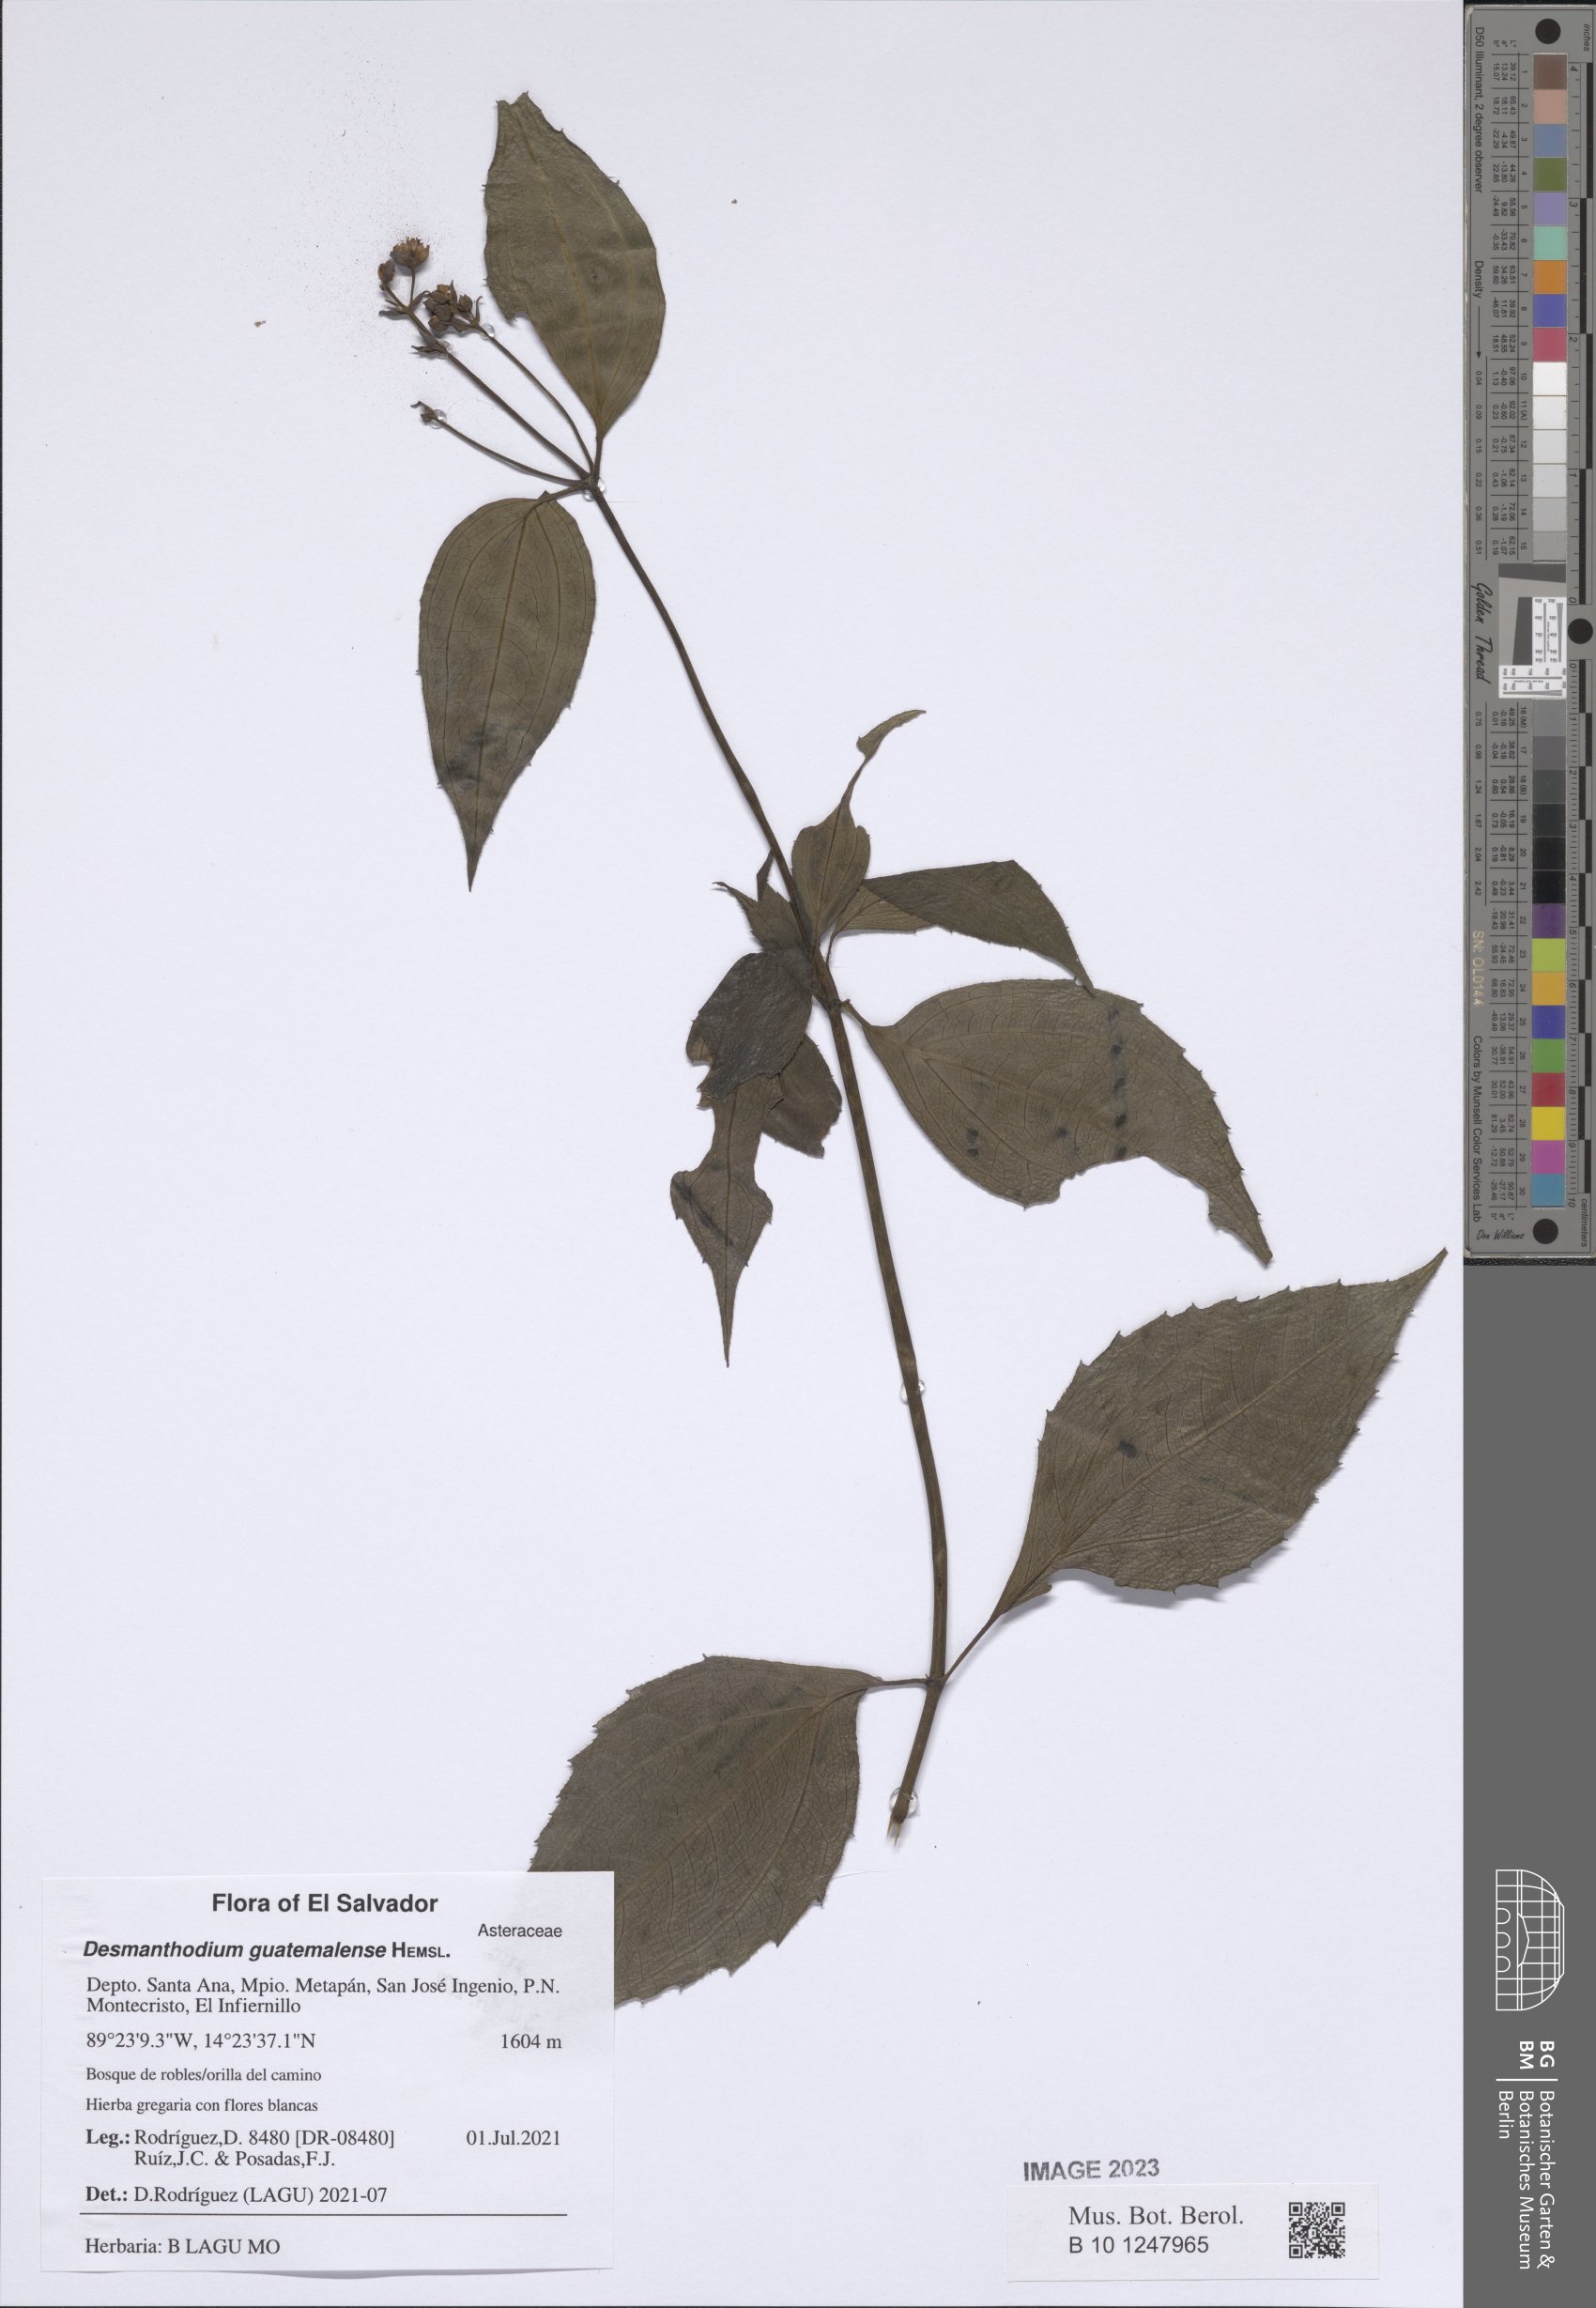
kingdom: Plantae
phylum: Tracheophyta
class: Magnoliopsida
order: Asterales
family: Asteraceae
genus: Desmanthodium
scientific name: Desmanthodium guatemalense
